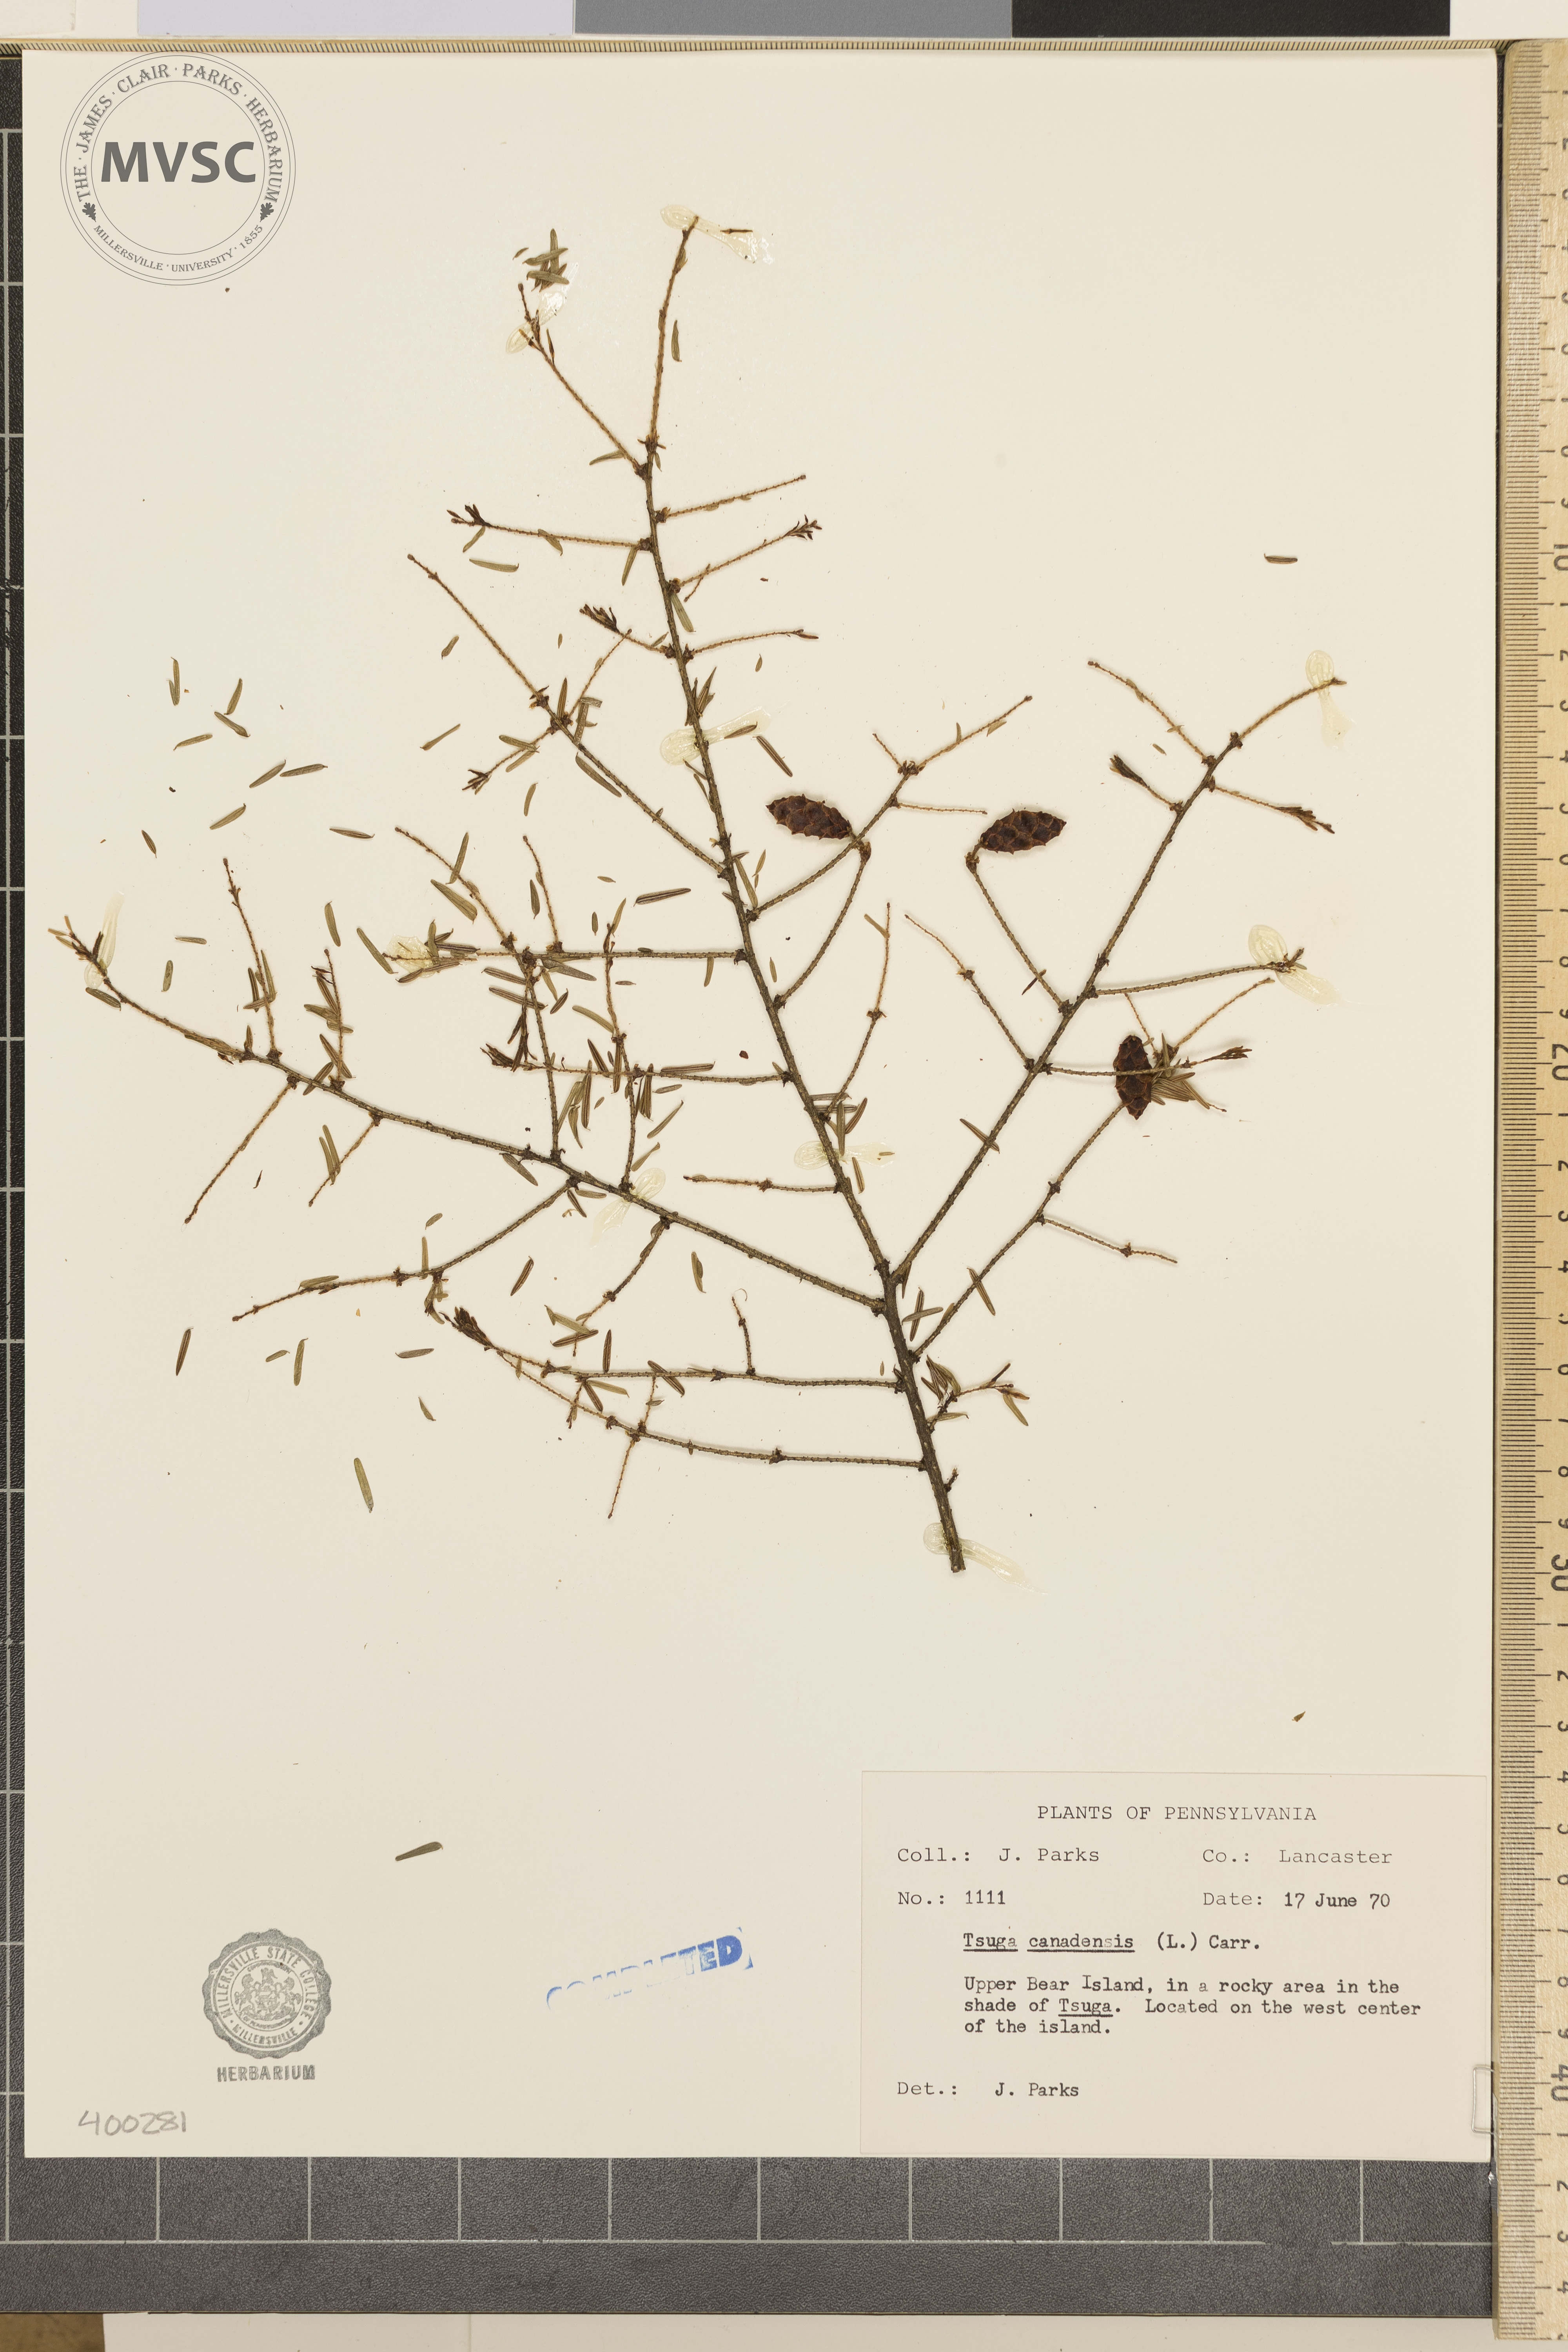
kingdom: Plantae
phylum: Tracheophyta
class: Pinopsida
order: Pinales
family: Pinaceae
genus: Tsuga
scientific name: Tsuga canadensis
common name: Eastern hemlock
